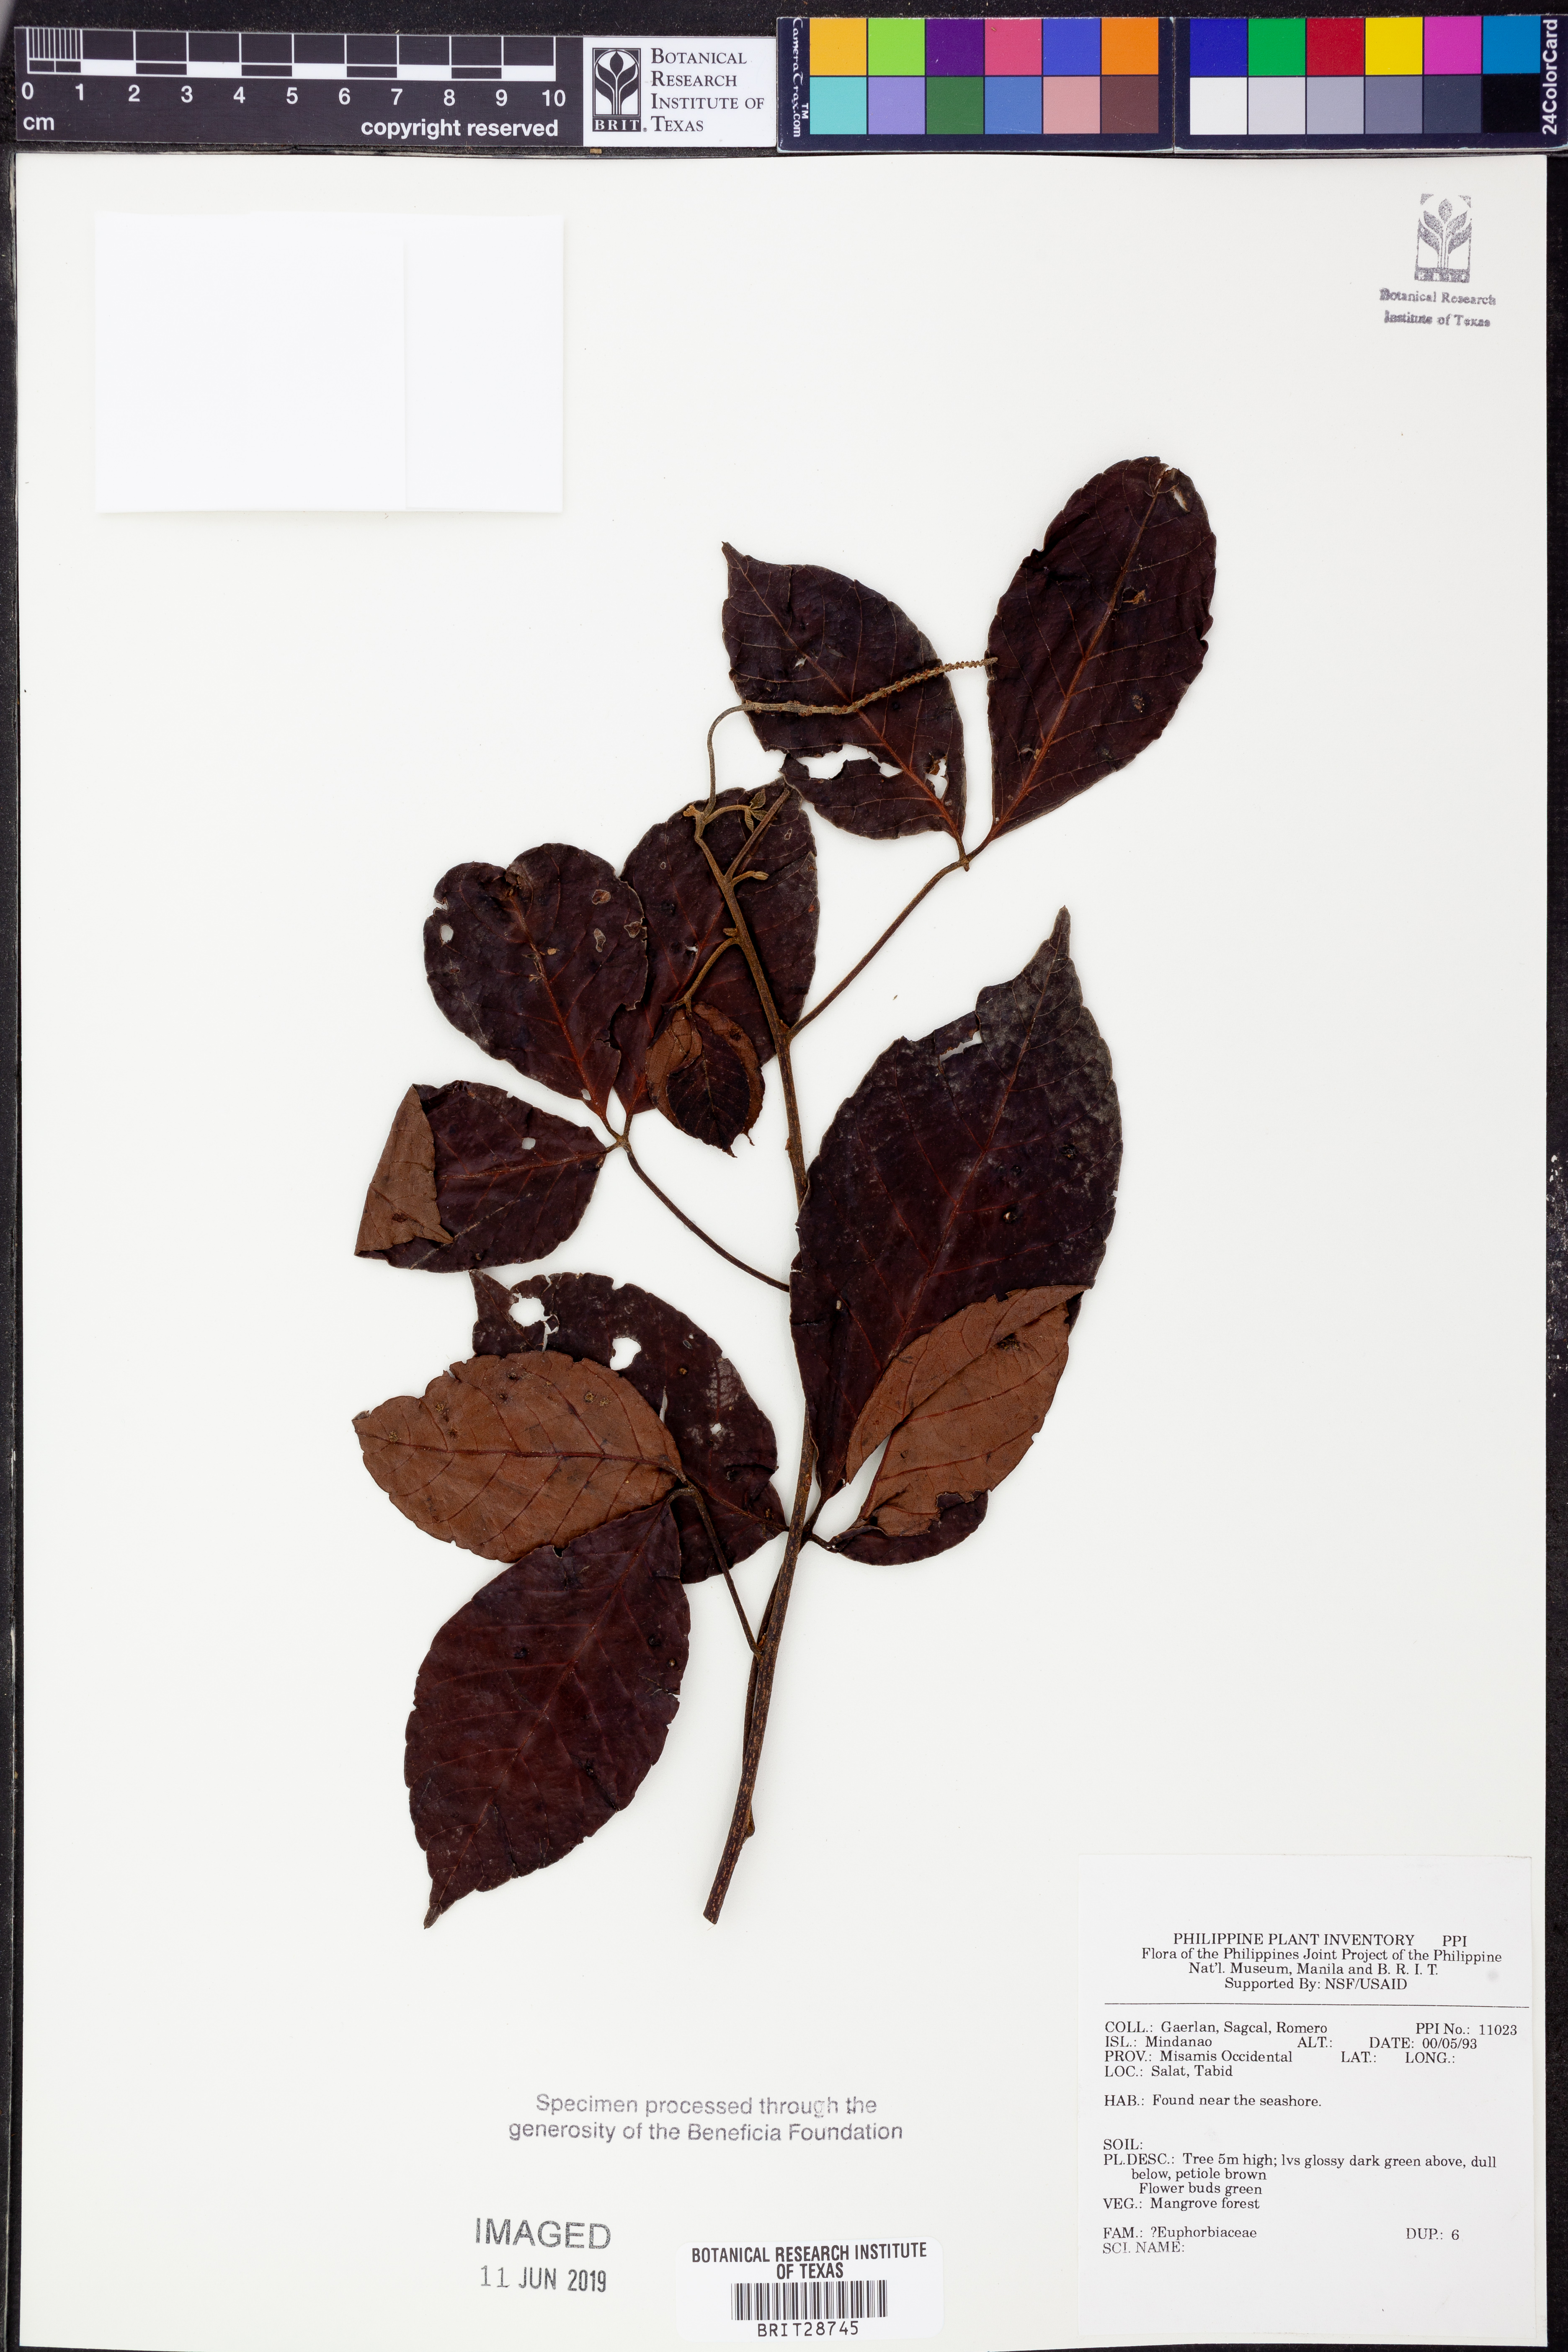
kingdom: Plantae
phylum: Tracheophyta
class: Magnoliopsida
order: Malpighiales
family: Euphorbiaceae
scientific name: Euphorbiaceae
